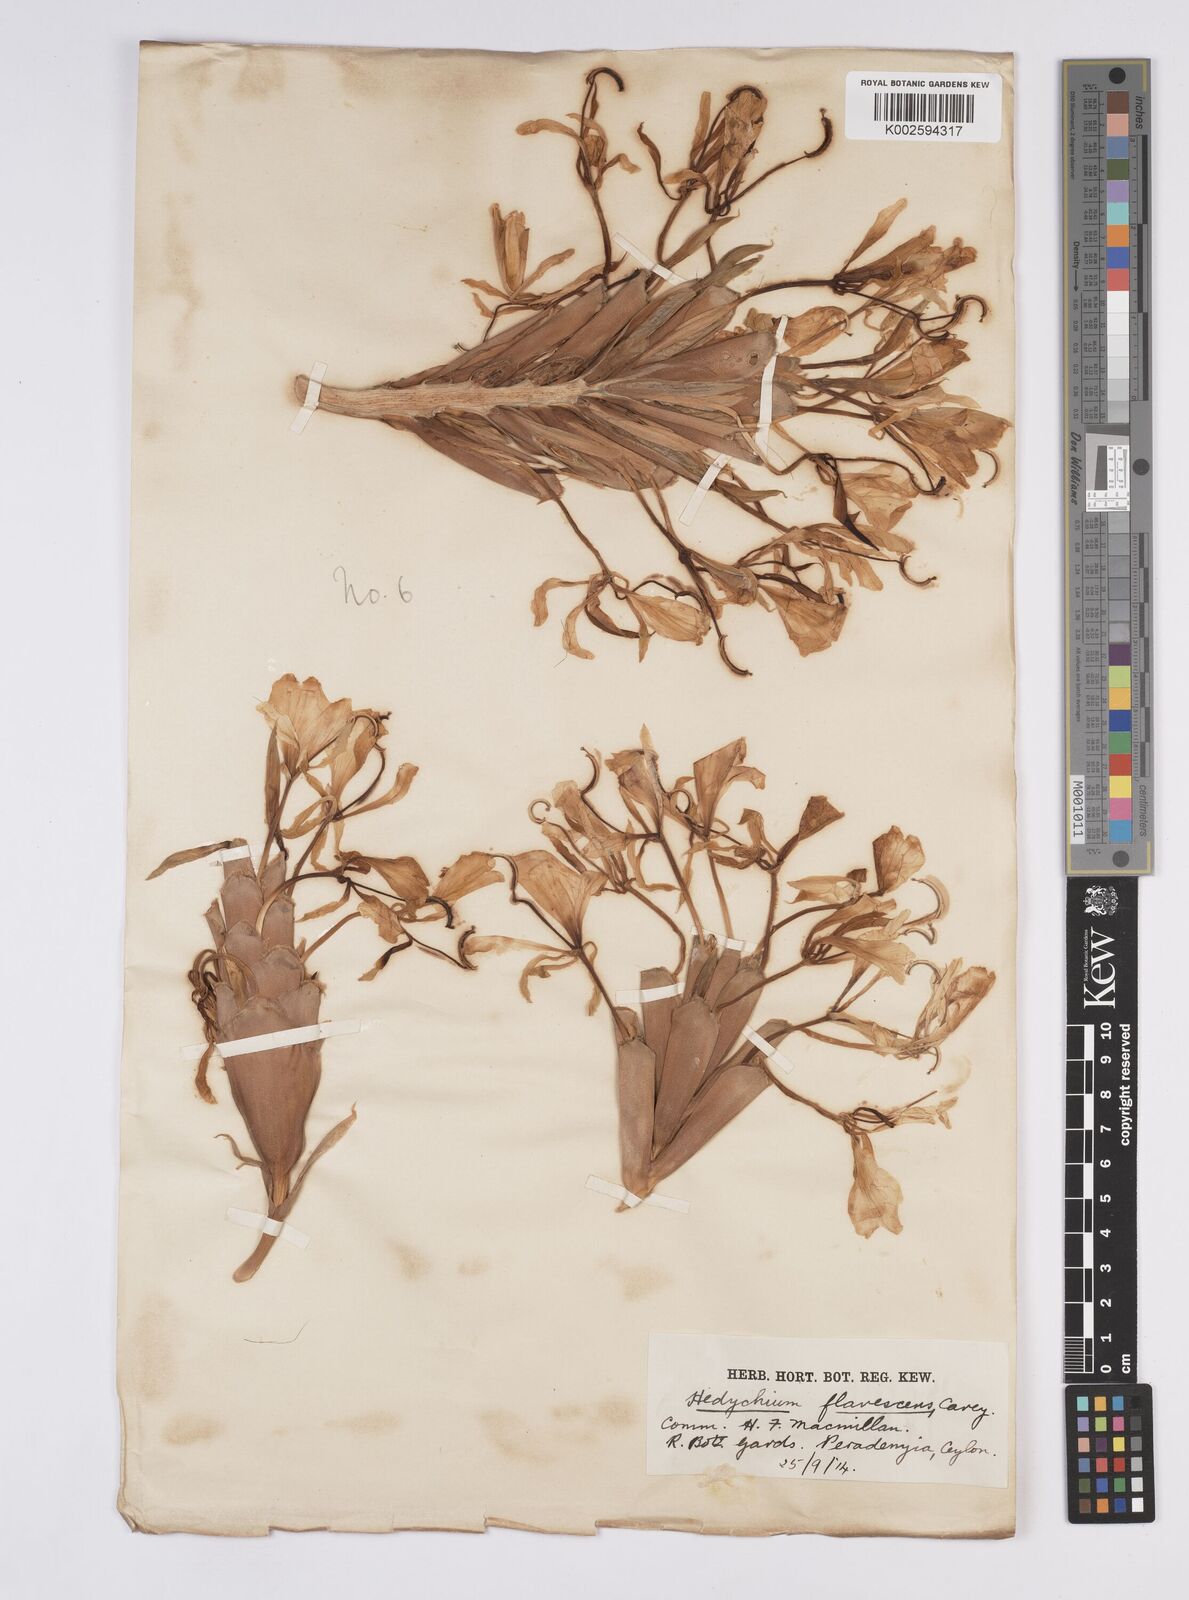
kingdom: Plantae
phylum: Tracheophyta
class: Liliopsida
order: Zingiberales
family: Zingiberaceae
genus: Hedychium
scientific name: Hedychium flavescens
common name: Yellow ginger
